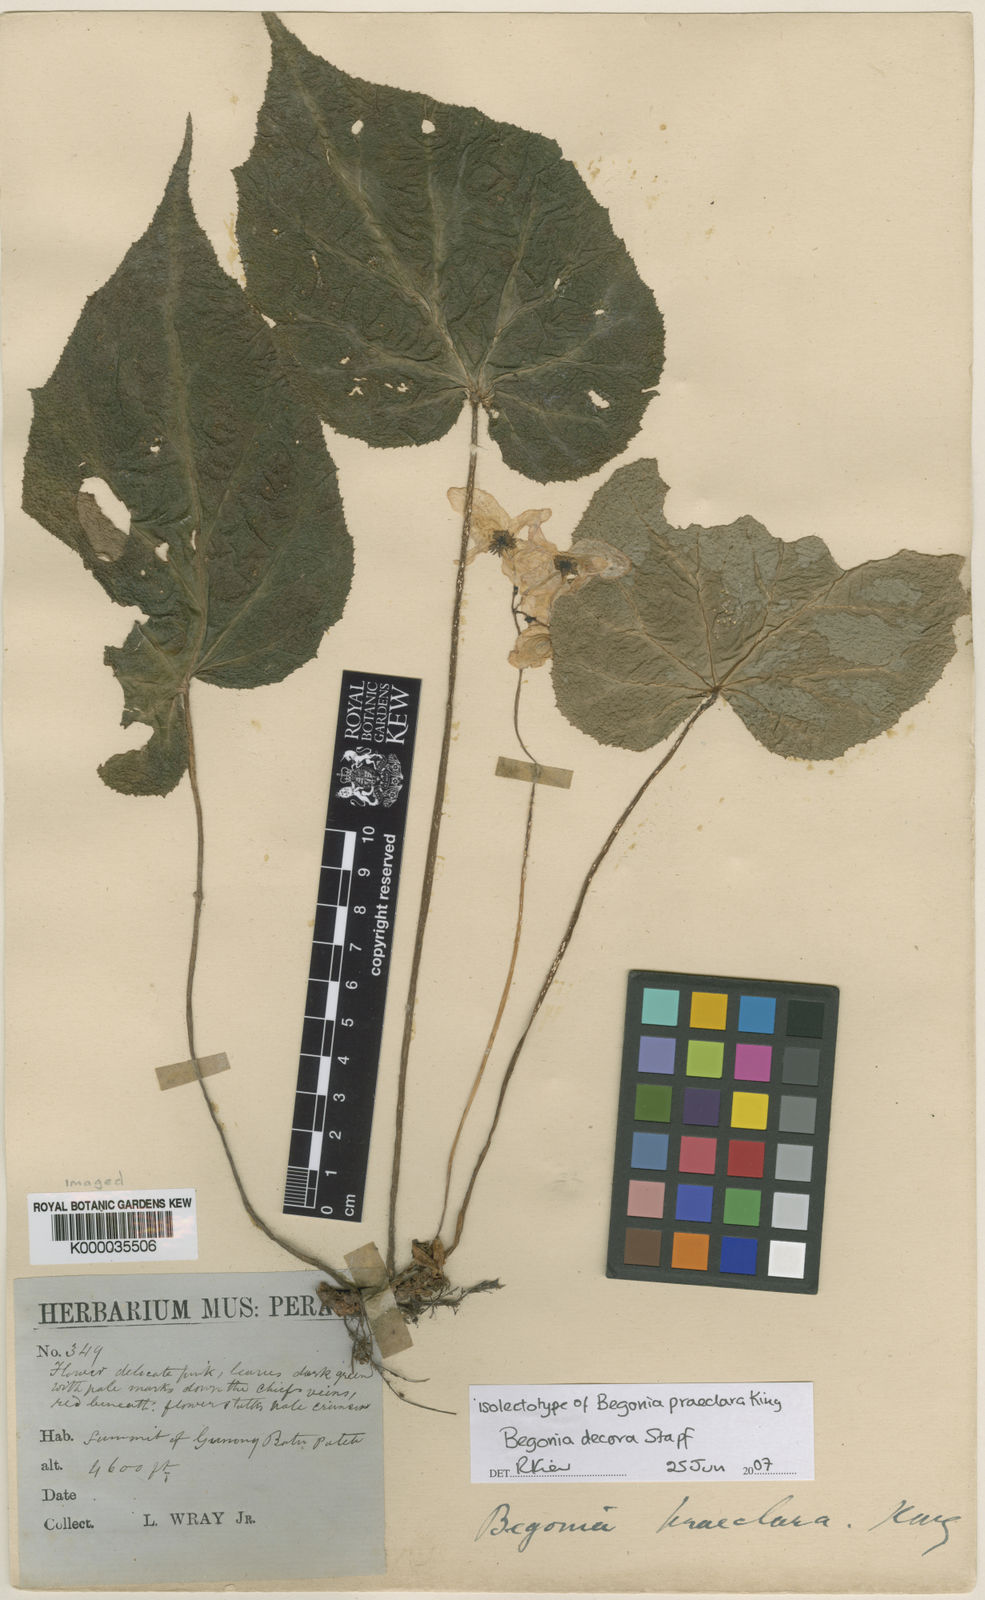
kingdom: Plantae
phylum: Tracheophyta
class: Magnoliopsida
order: Cucurbitales
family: Begoniaceae
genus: Begonia
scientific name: Begonia decora
